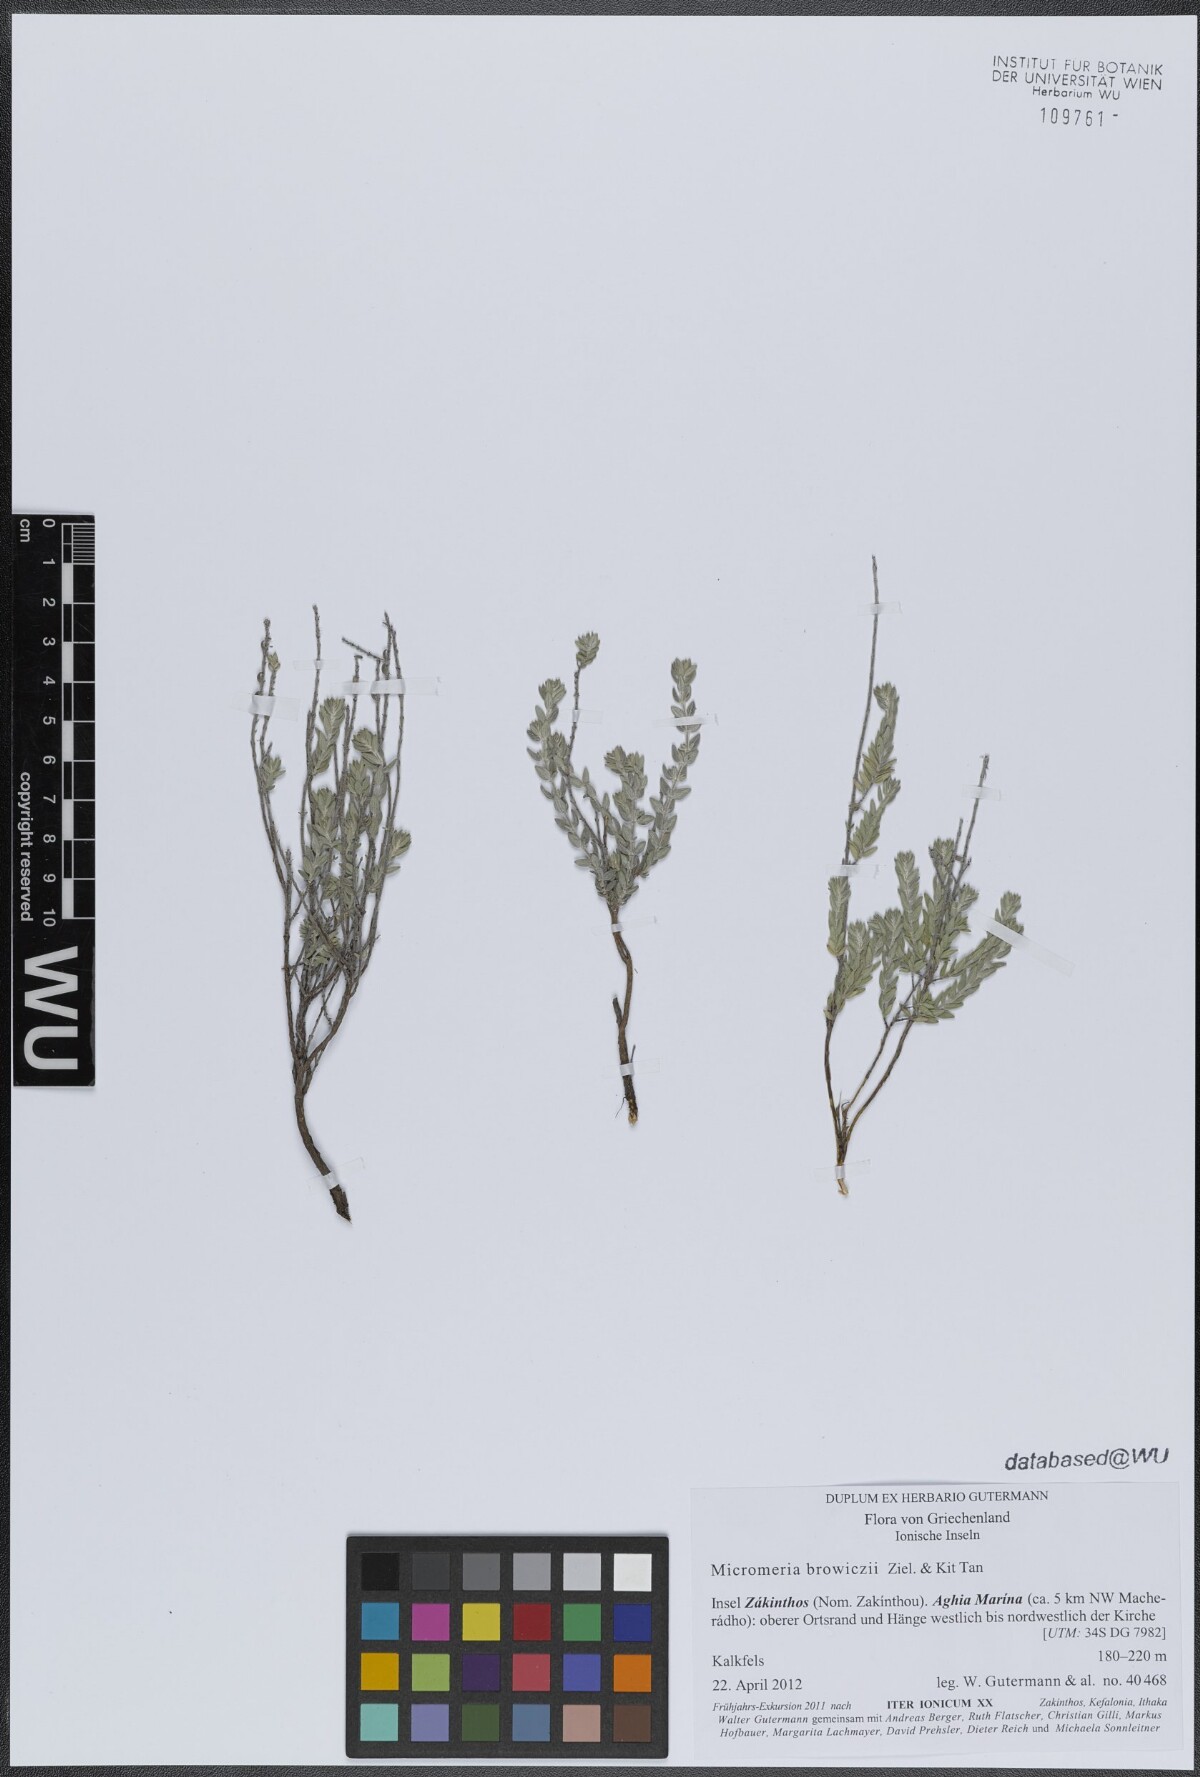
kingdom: Plantae
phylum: Tracheophyta
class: Magnoliopsida
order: Lamiales
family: Lamiaceae
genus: Micromeria
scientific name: Micromeria browiczii
